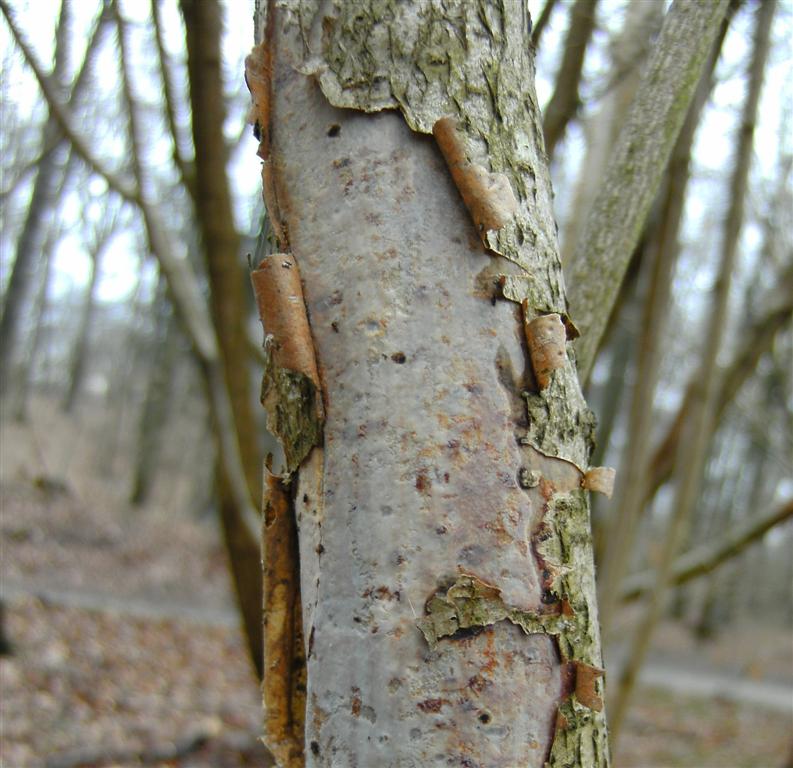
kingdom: Fungi
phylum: Basidiomycota
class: Agaricomycetes
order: Corticiales
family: Vuilleminiaceae
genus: Vuilleminia
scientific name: Vuilleminia coryli
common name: hassel-barksprænger
